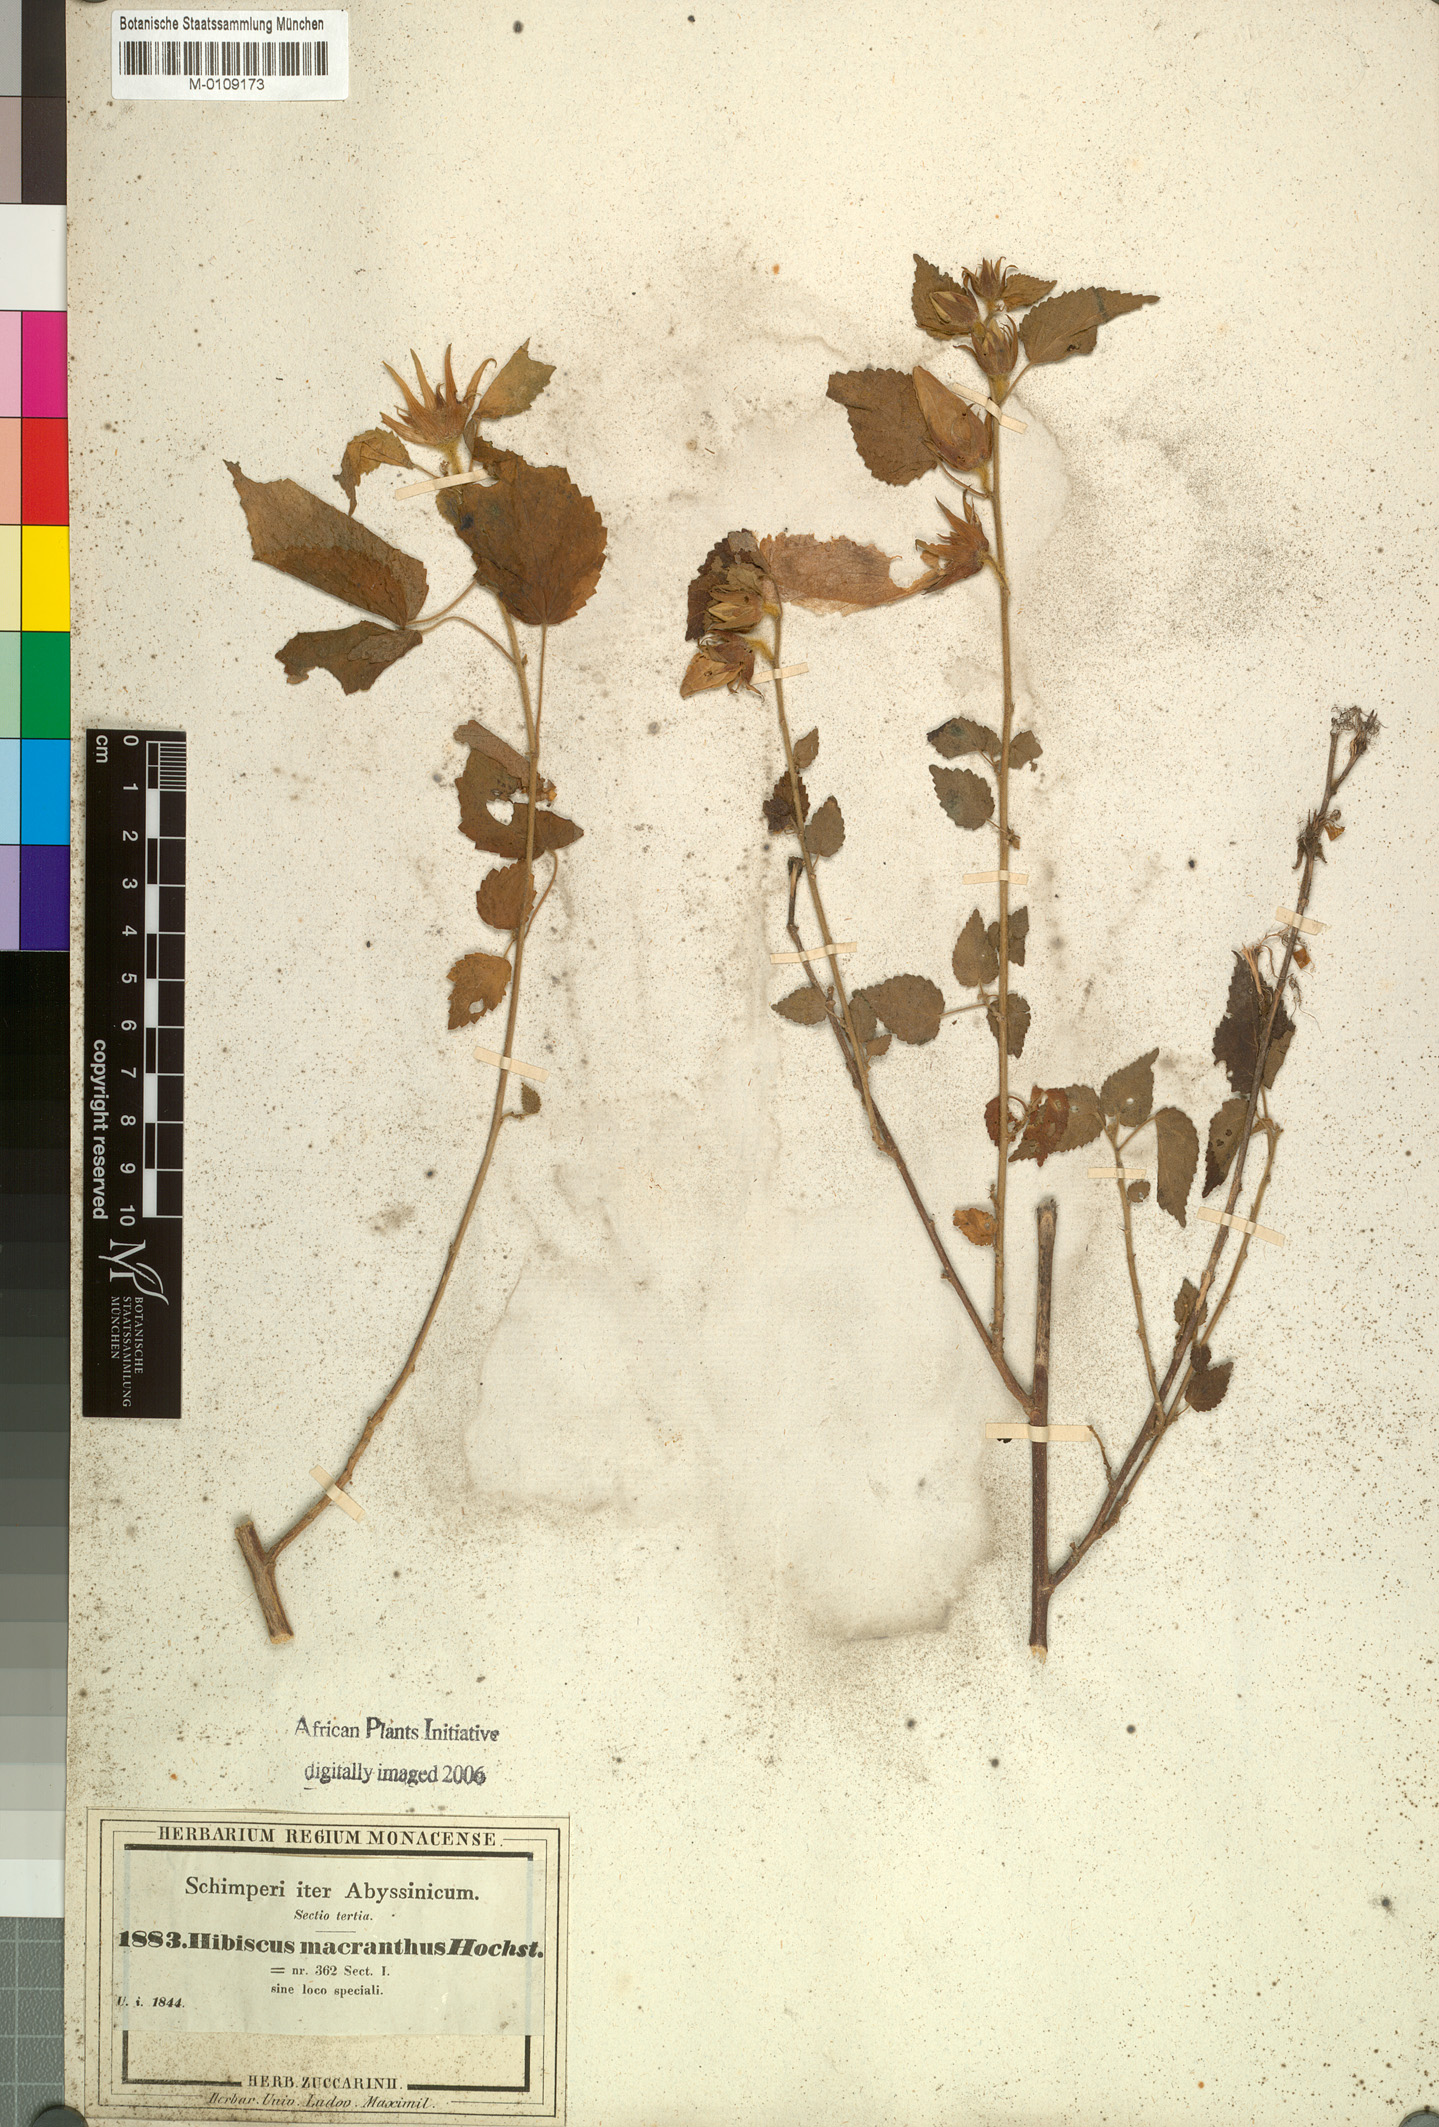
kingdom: Plantae
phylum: Tracheophyta
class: Magnoliopsida
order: Malvales
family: Malvaceae
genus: Hibiscus
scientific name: Hibiscus macranthus
